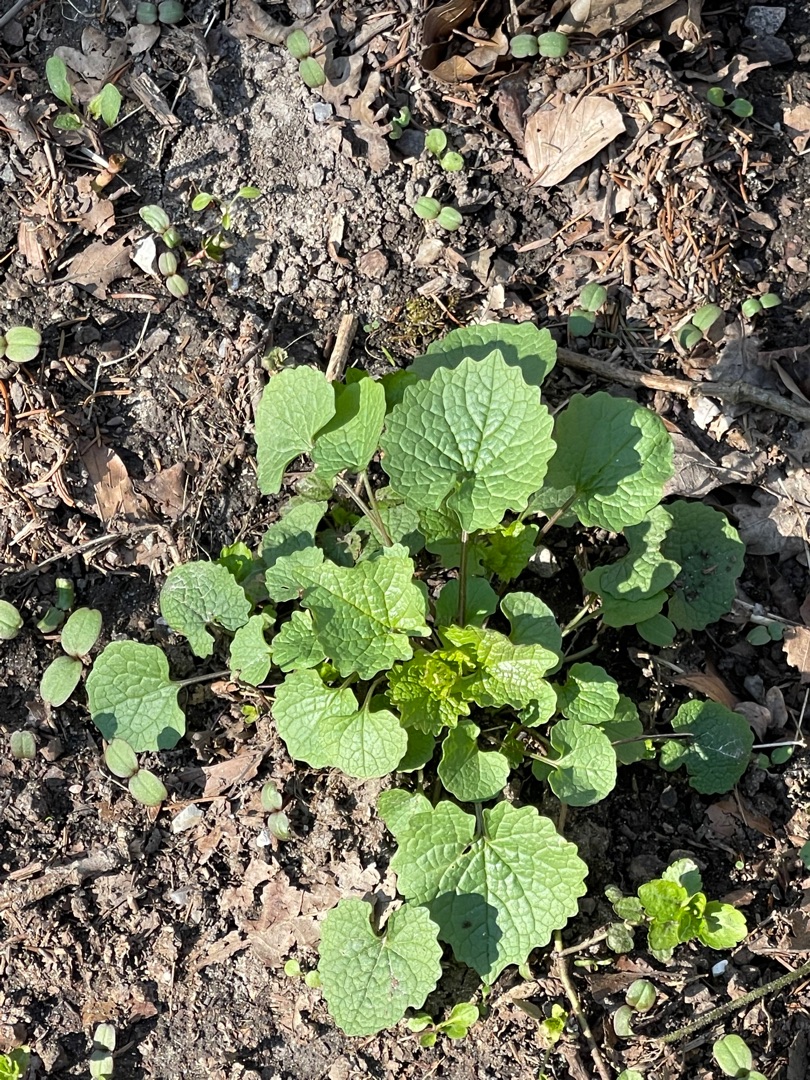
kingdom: Plantae
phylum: Tracheophyta
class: Magnoliopsida
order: Brassicales
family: Brassicaceae
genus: Alliaria
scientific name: Alliaria petiolata
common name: Løgkarse
